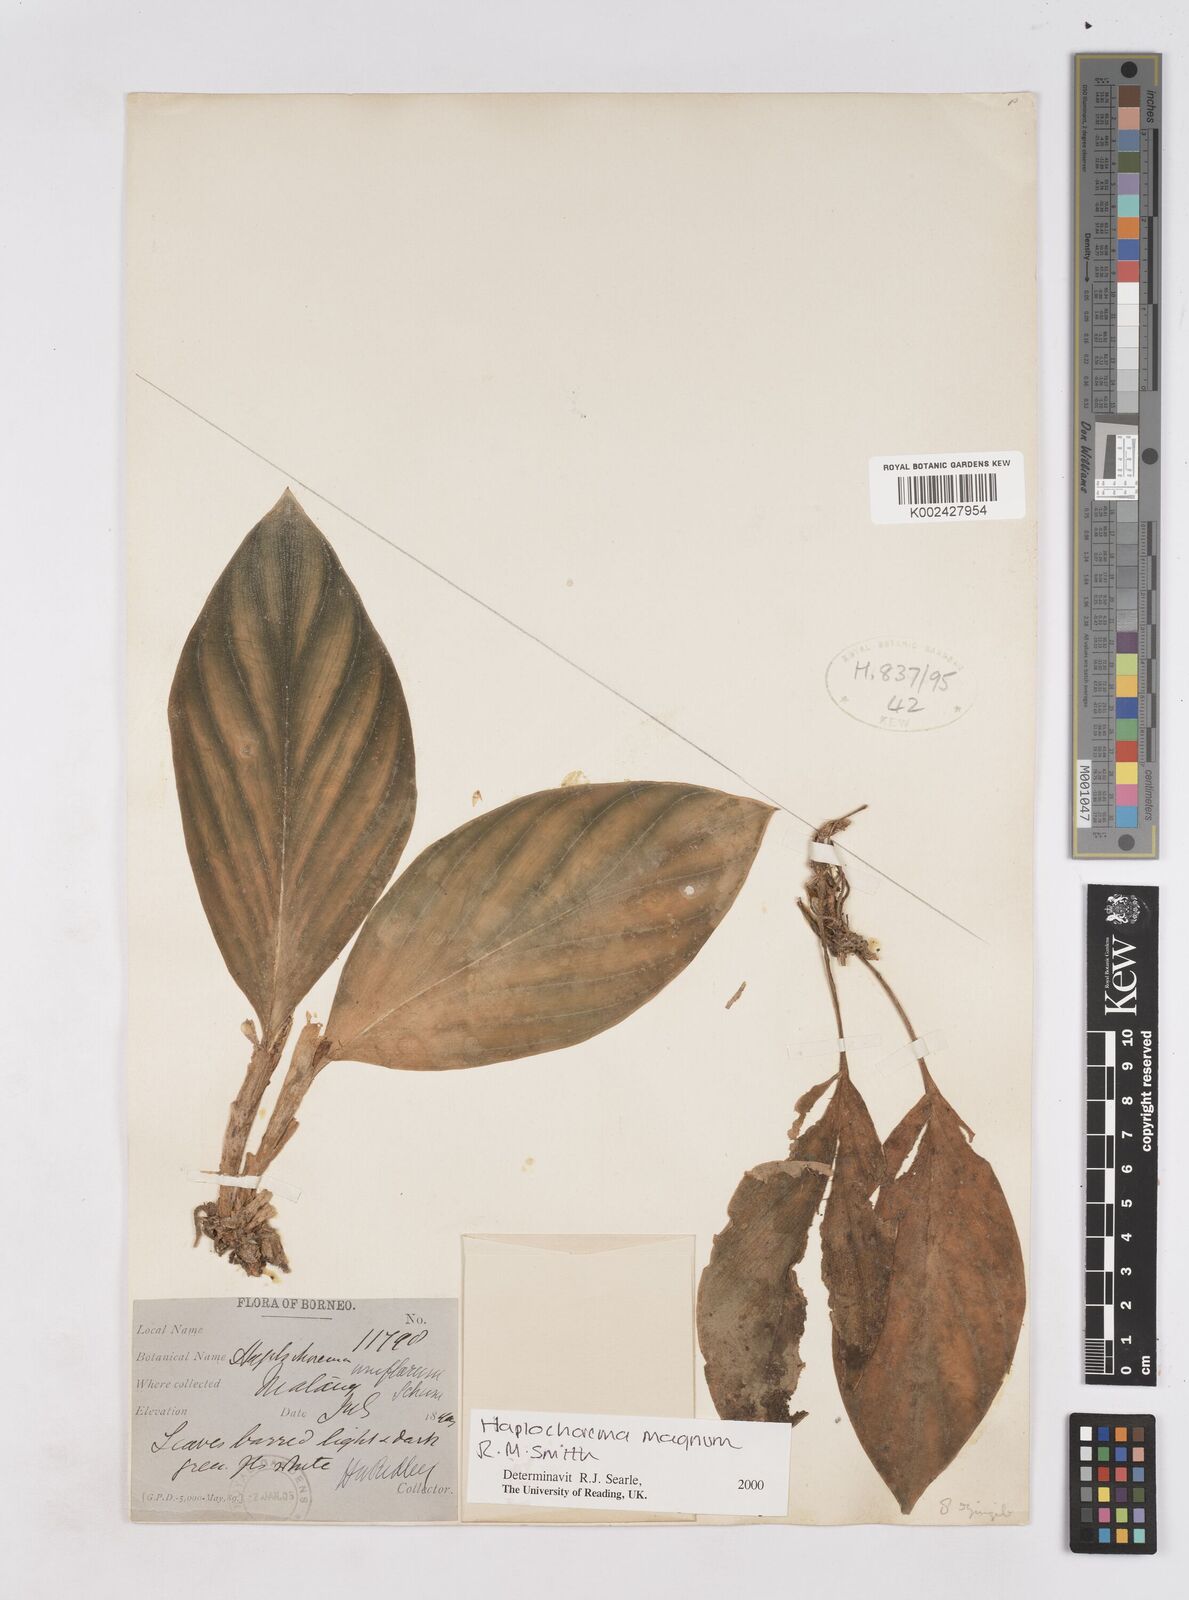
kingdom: Plantae
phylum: Tracheophyta
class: Liliopsida
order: Zingiberales
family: Zingiberaceae
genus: Boesenbergia
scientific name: Boesenbergia magna
